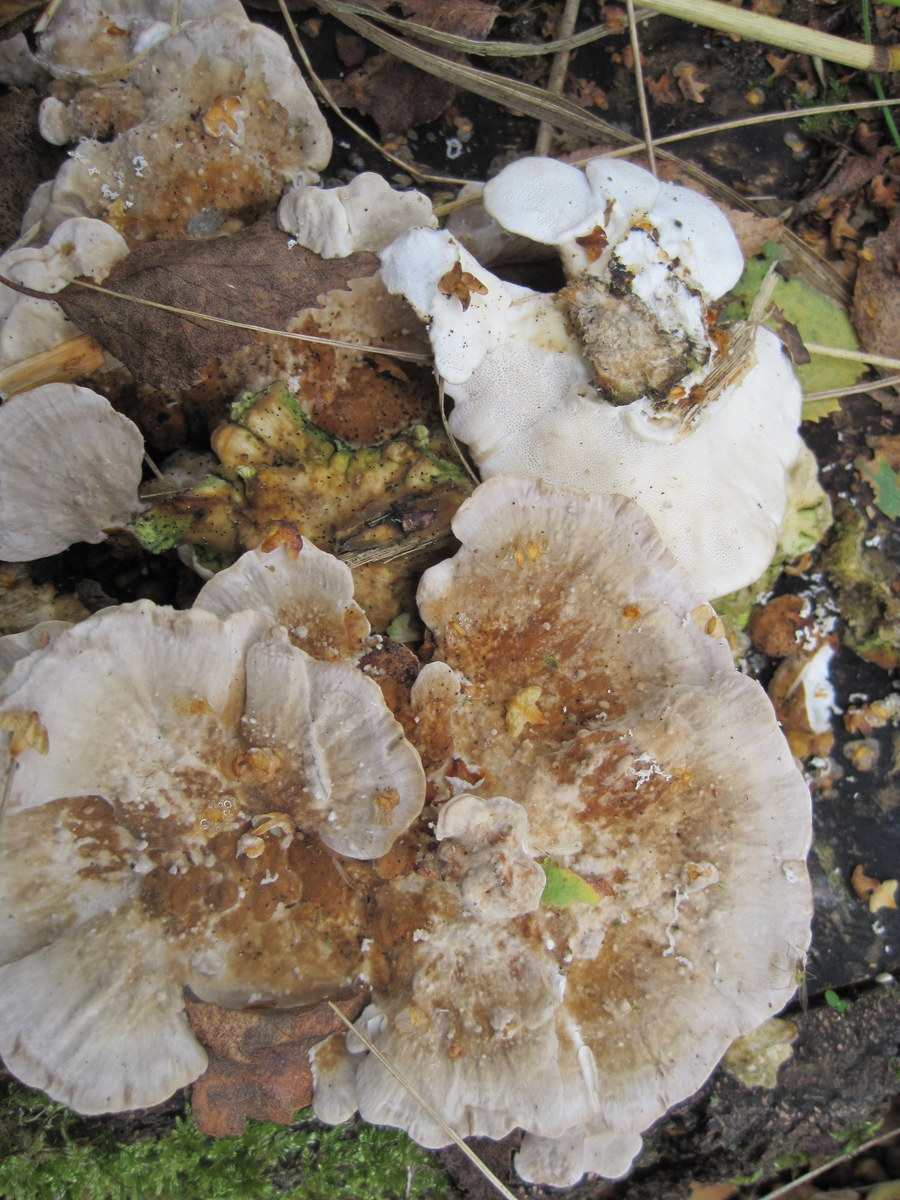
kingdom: Fungi
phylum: Basidiomycota
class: Agaricomycetes
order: Polyporales
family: Polyporaceae
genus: Trametes
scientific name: Trametes ochracea
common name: bæltet læderporesvamp
